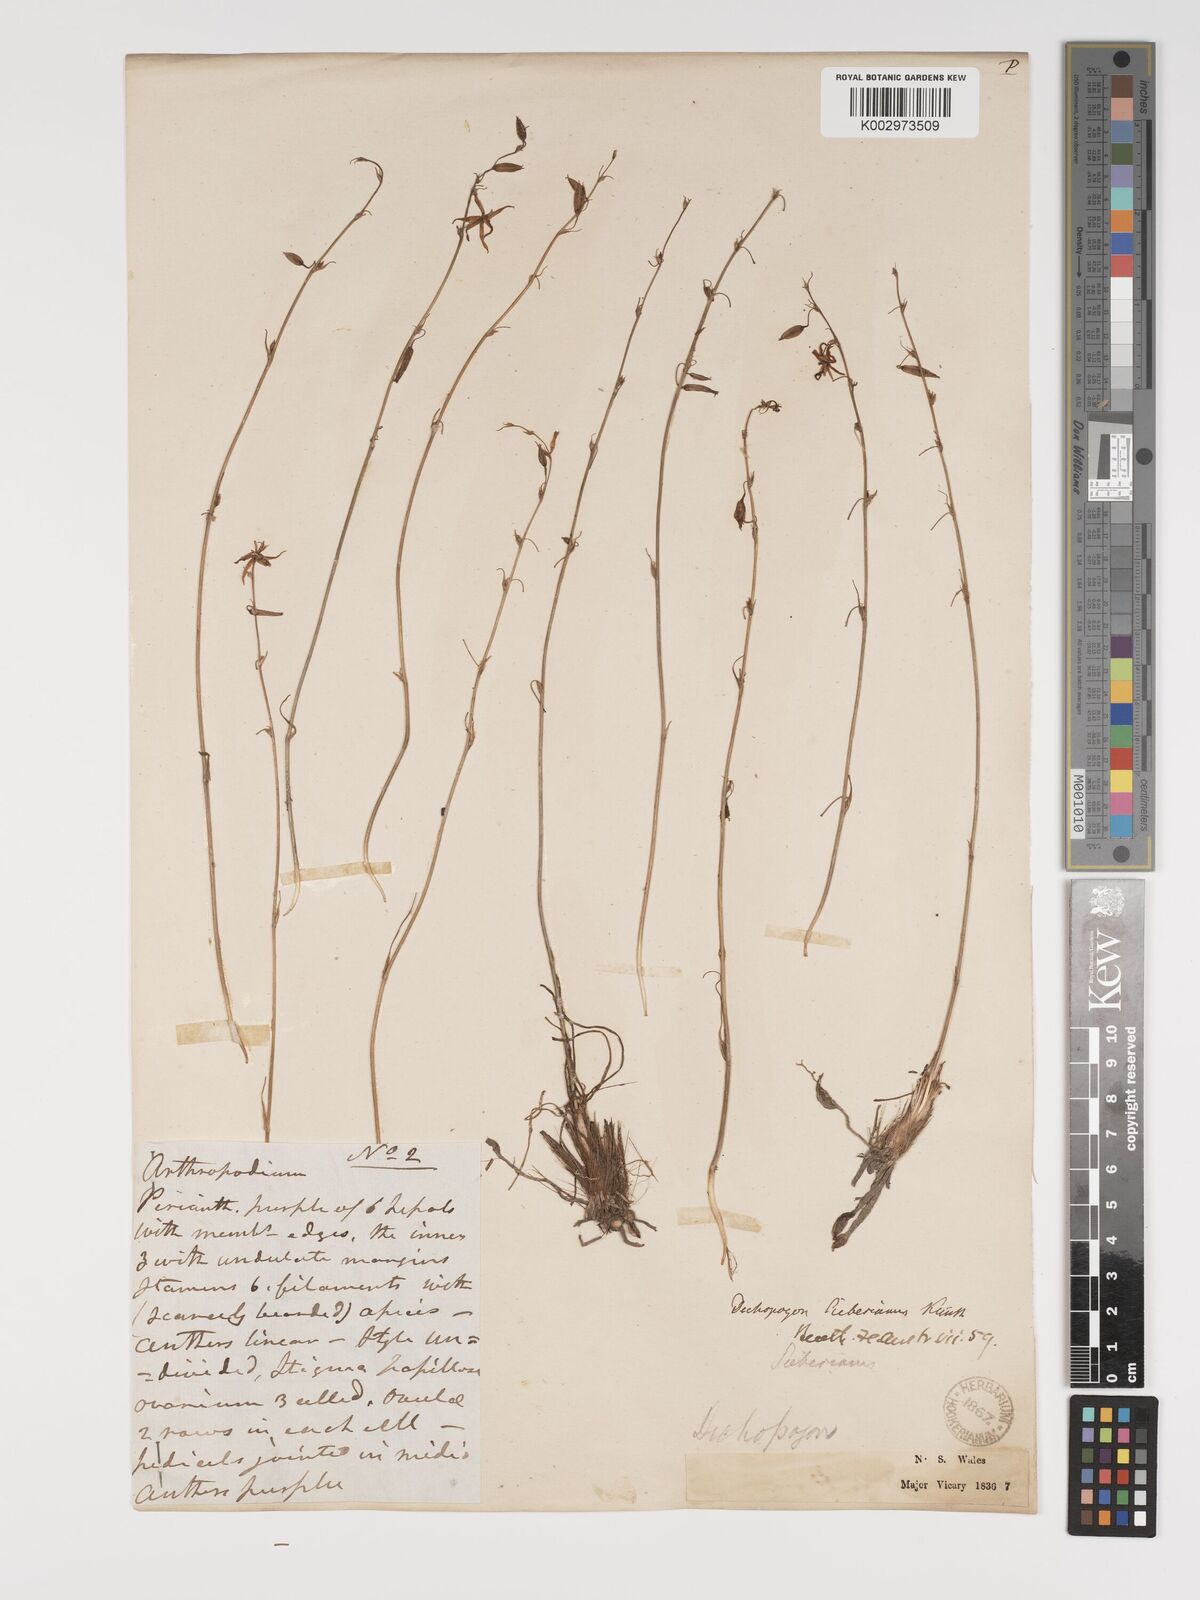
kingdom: Plantae
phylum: Tracheophyta
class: Liliopsida
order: Asparagales
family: Asparagaceae
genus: Dichopogon
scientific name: Dichopogon fimbriatus
